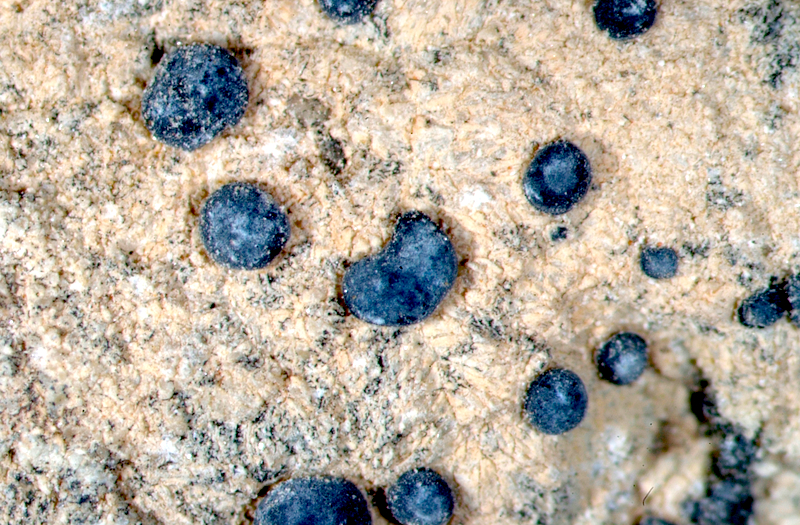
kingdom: Fungi
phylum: Ascomycota
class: Lecanoromycetes
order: Lecanorales
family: Lecanoraceae
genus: Lecidella
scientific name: Lecidella
